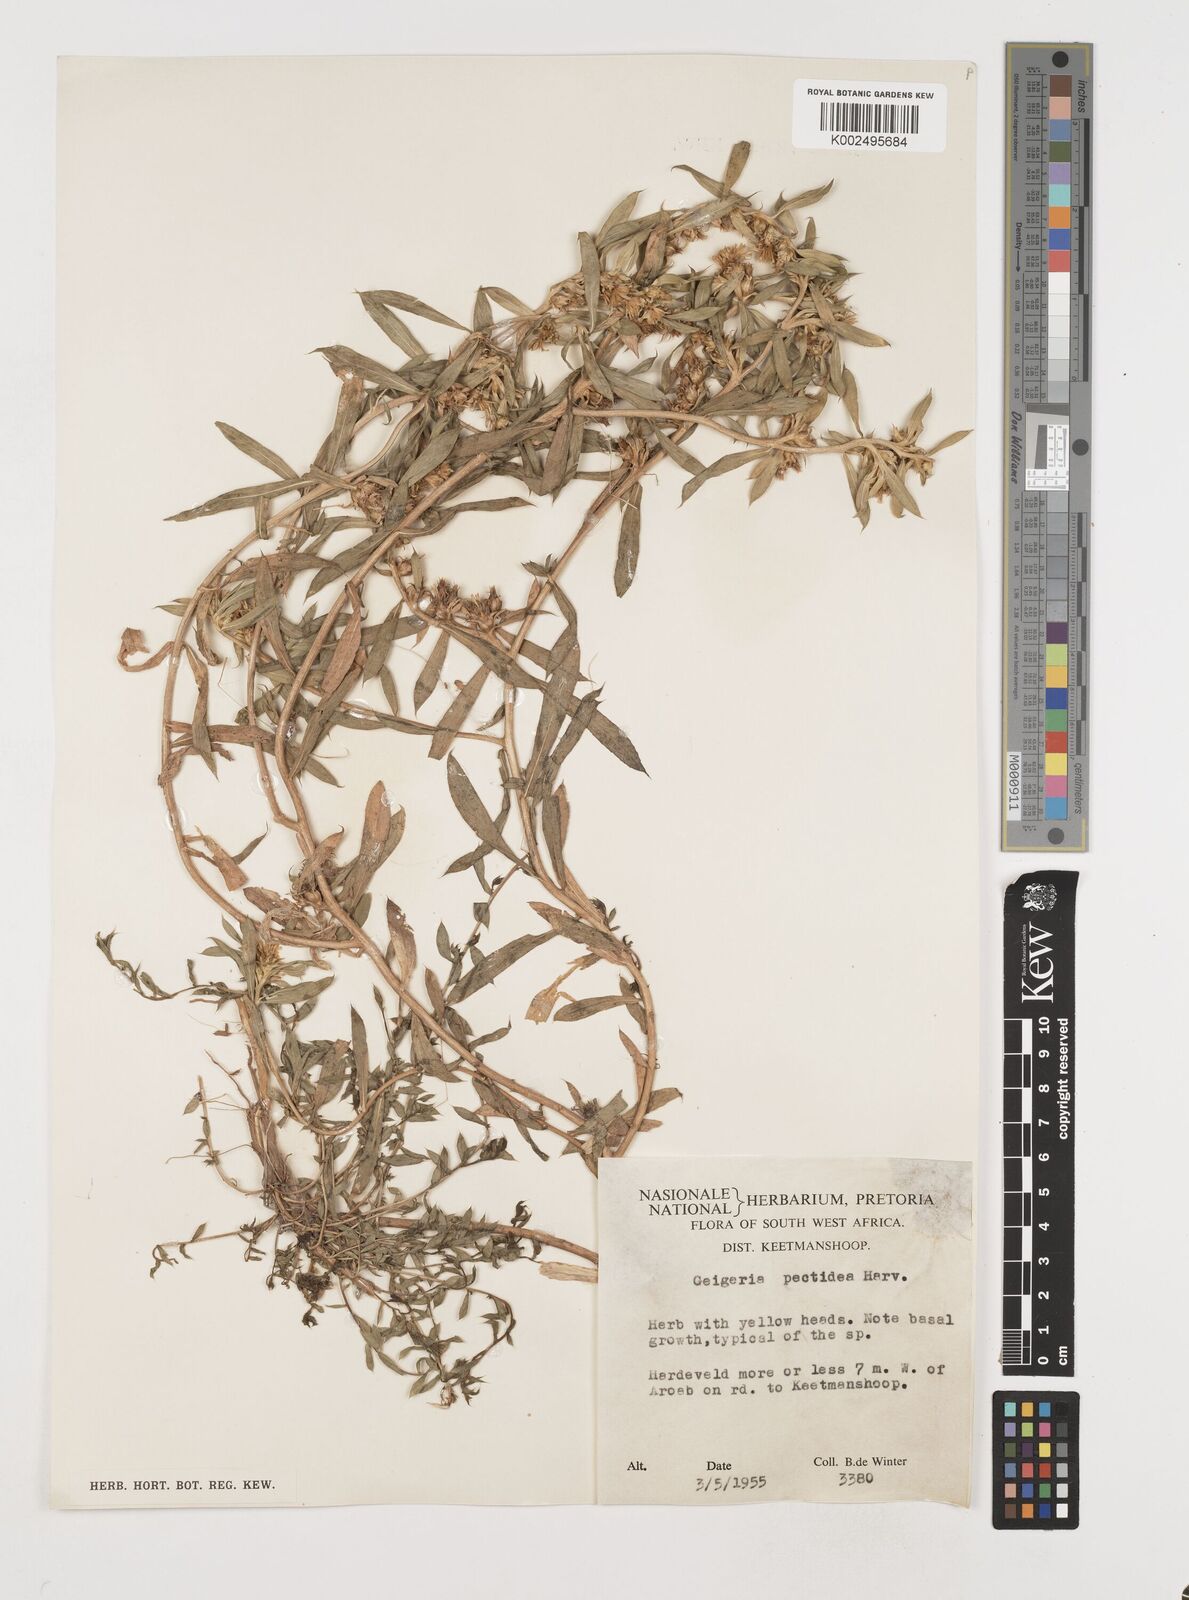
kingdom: Plantae
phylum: Tracheophyta
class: Magnoliopsida
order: Asterales
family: Asteraceae
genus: Geigeria
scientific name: Geigeria pectidea
